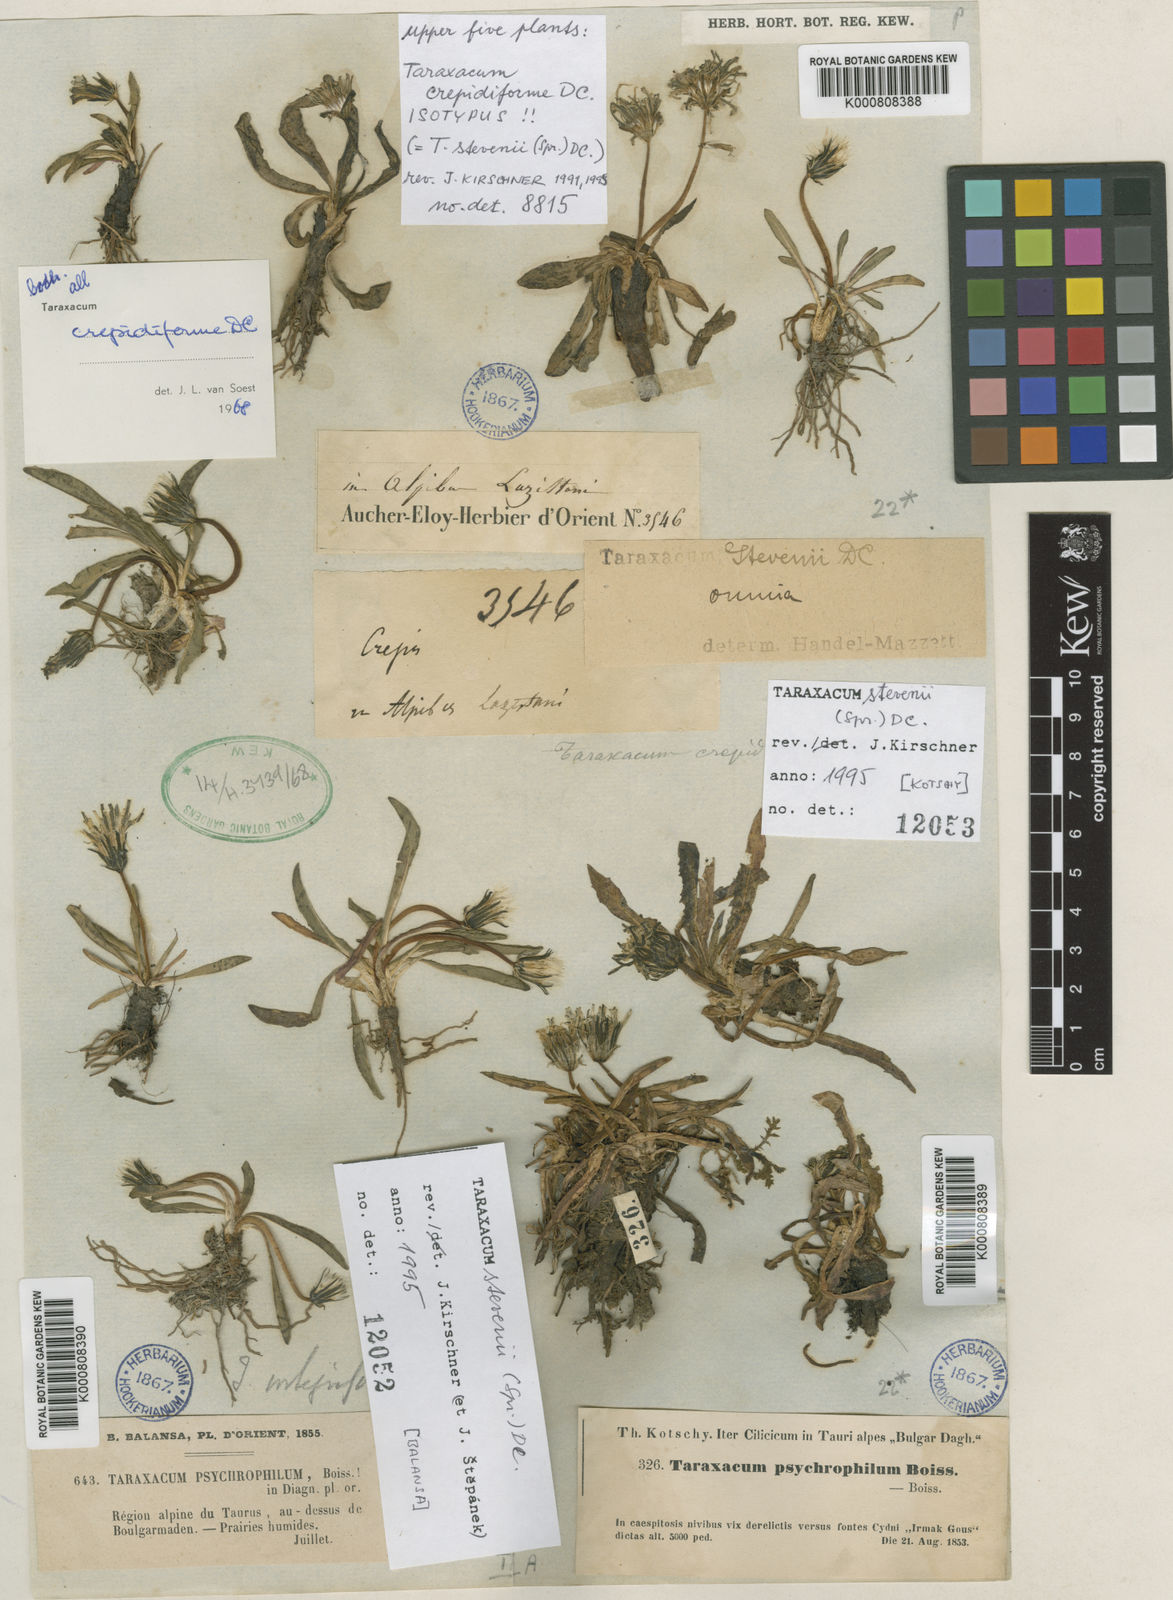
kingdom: Plantae
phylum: Tracheophyta
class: Magnoliopsida
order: Asterales
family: Asteraceae
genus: Taraxacum
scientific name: Taraxacum stevenii
